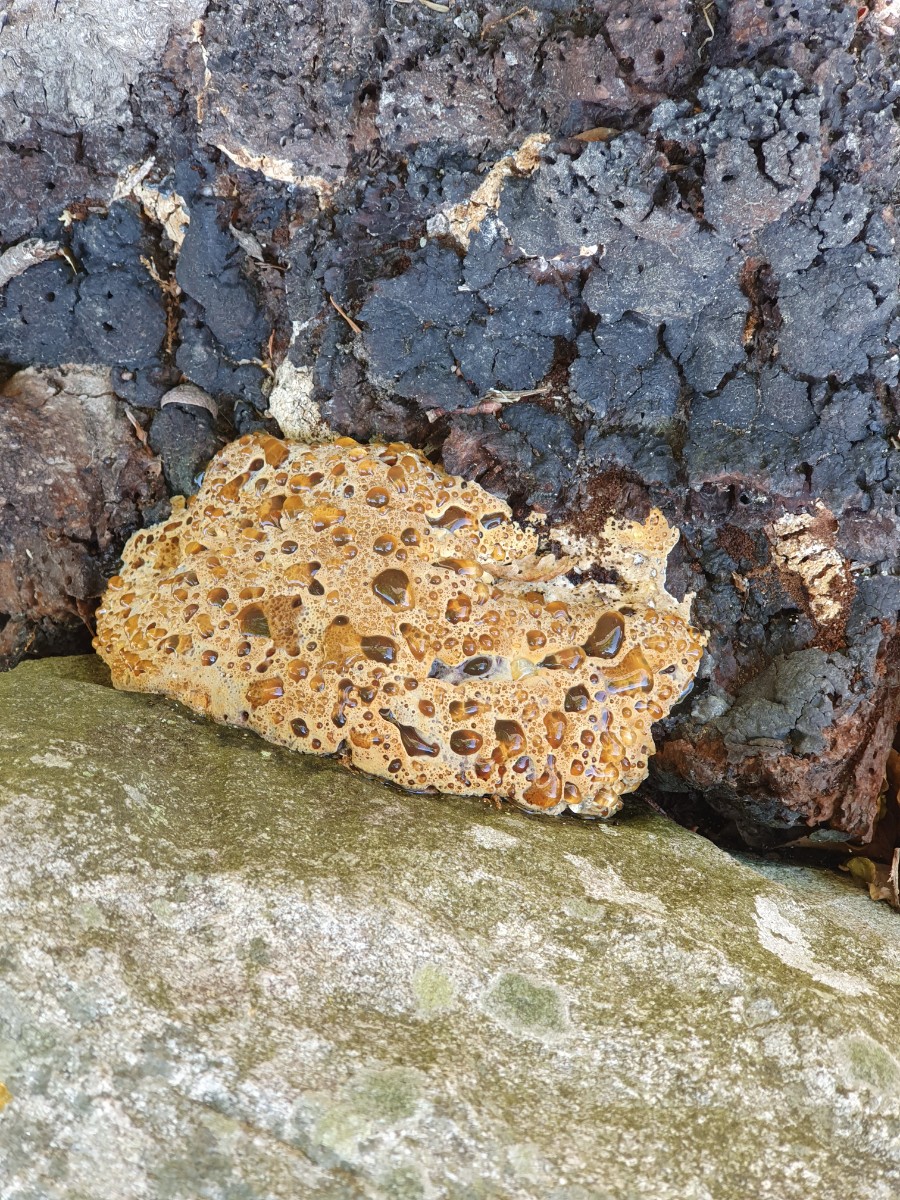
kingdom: Fungi
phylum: Basidiomycota
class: Agaricomycetes
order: Hymenochaetales
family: Hymenochaetaceae
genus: Pseudoinonotus
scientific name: Pseudoinonotus dryadeus
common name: ege-spejlporesvamp
